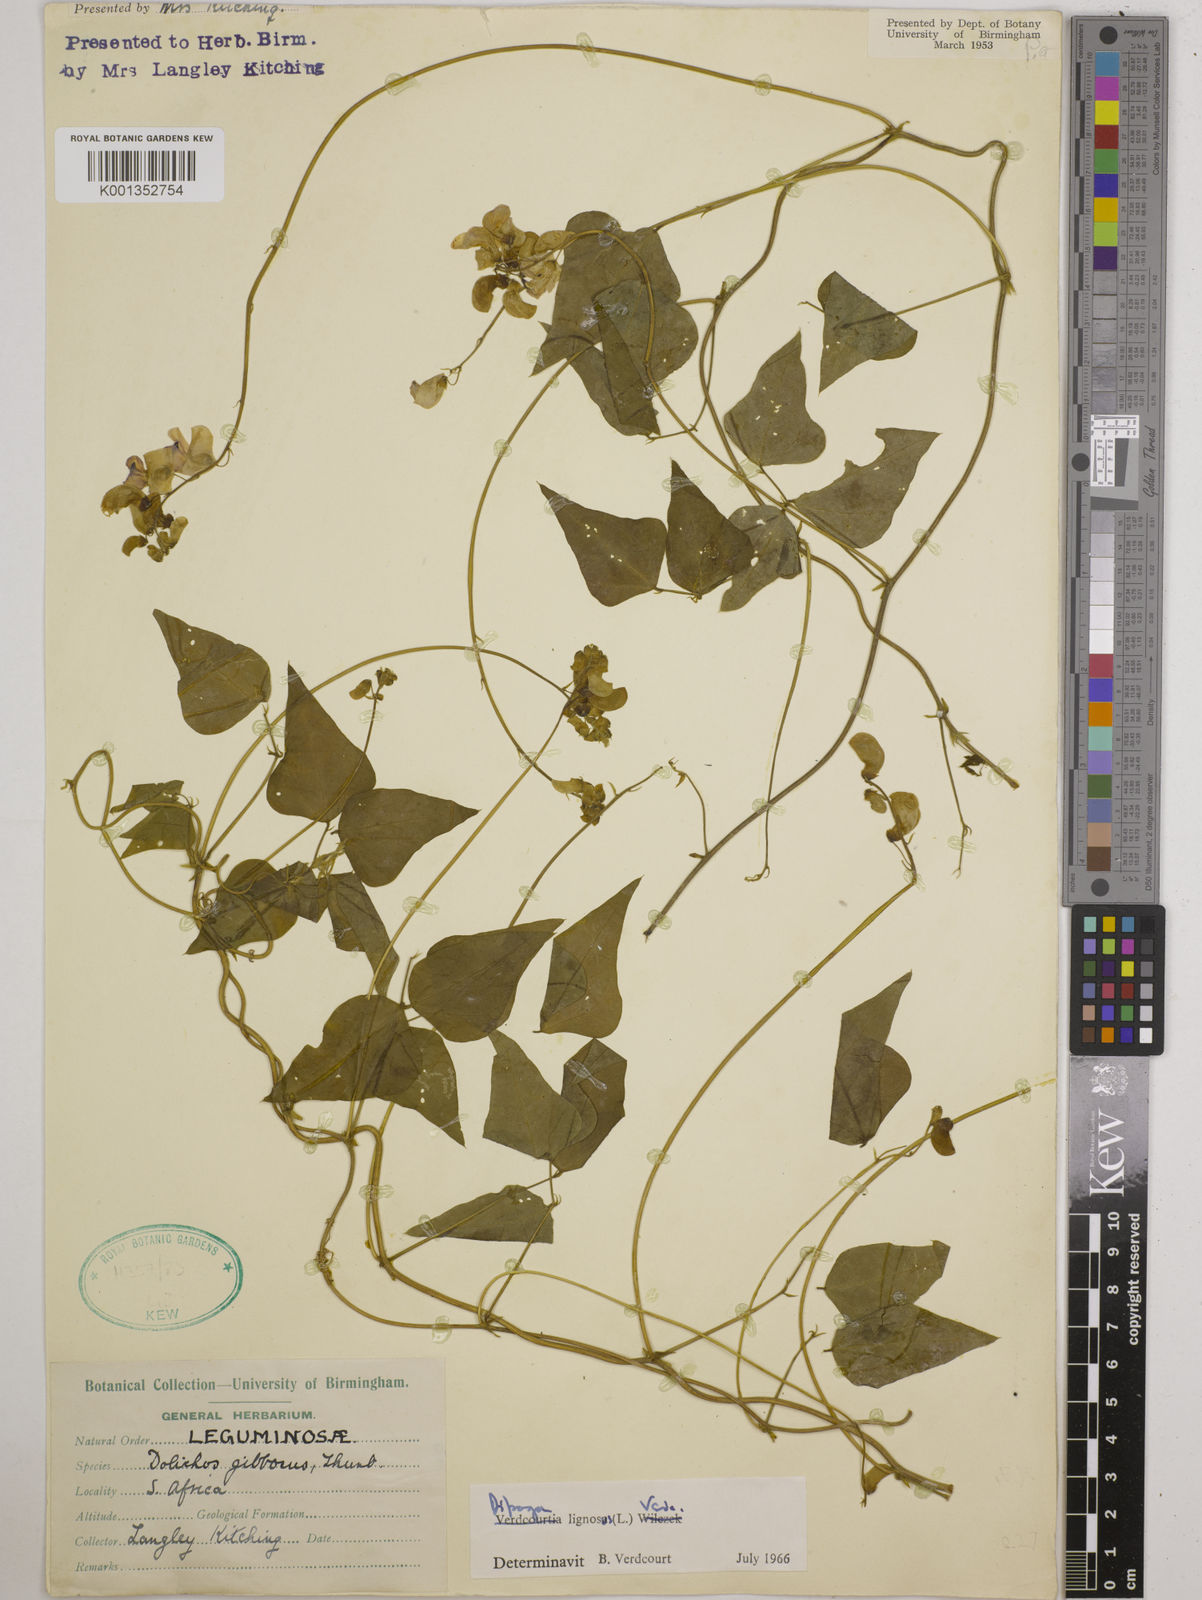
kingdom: Plantae
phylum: Tracheophyta
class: Magnoliopsida
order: Fabales
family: Fabaceae
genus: Dipogon
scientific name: Dipogon lignosus
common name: Okie bean
